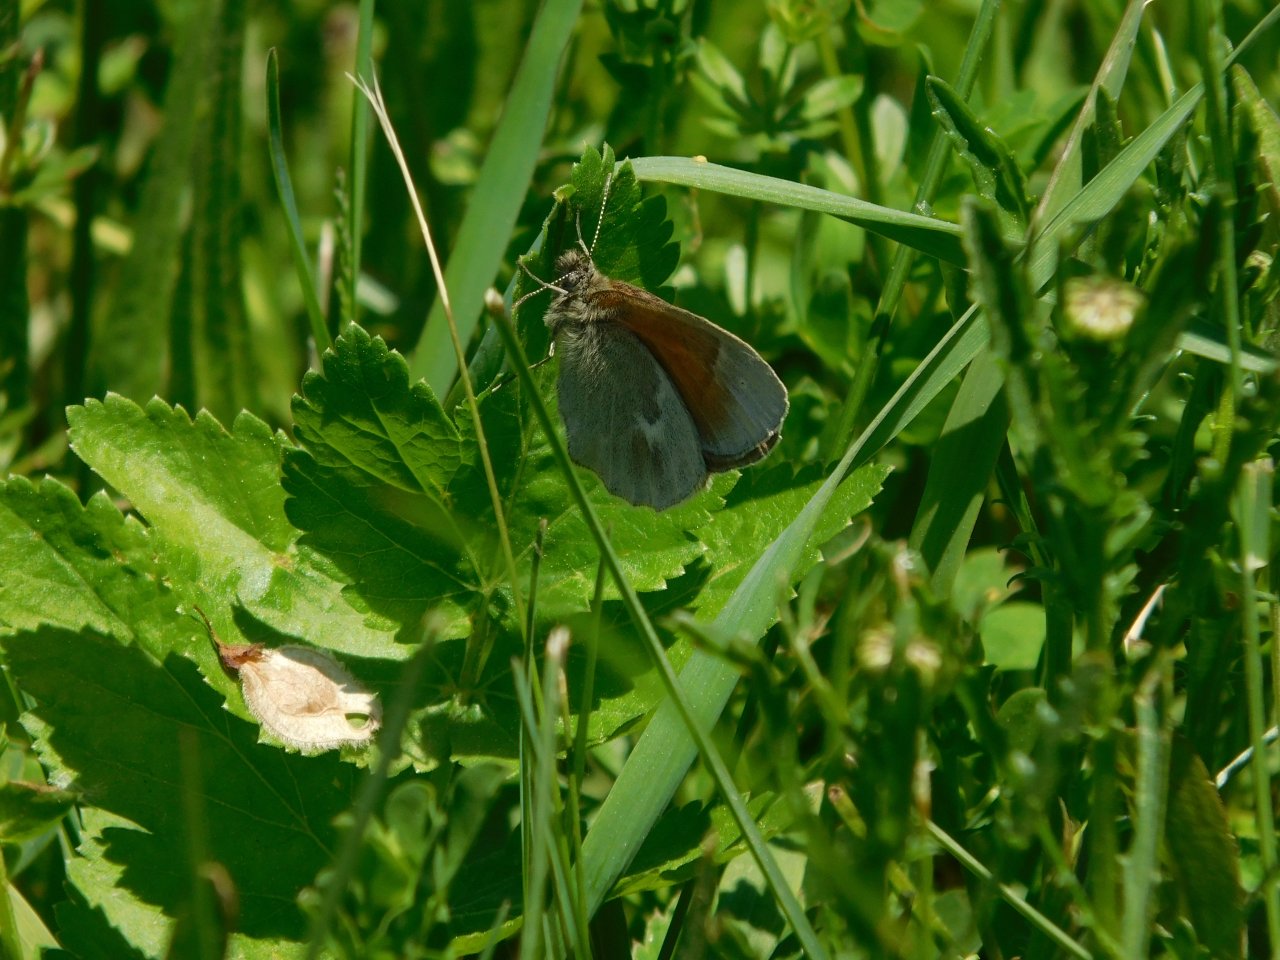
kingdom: Animalia
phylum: Arthropoda
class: Insecta
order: Lepidoptera
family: Nymphalidae
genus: Coenonympha
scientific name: Coenonympha tullia
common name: Large Heath
